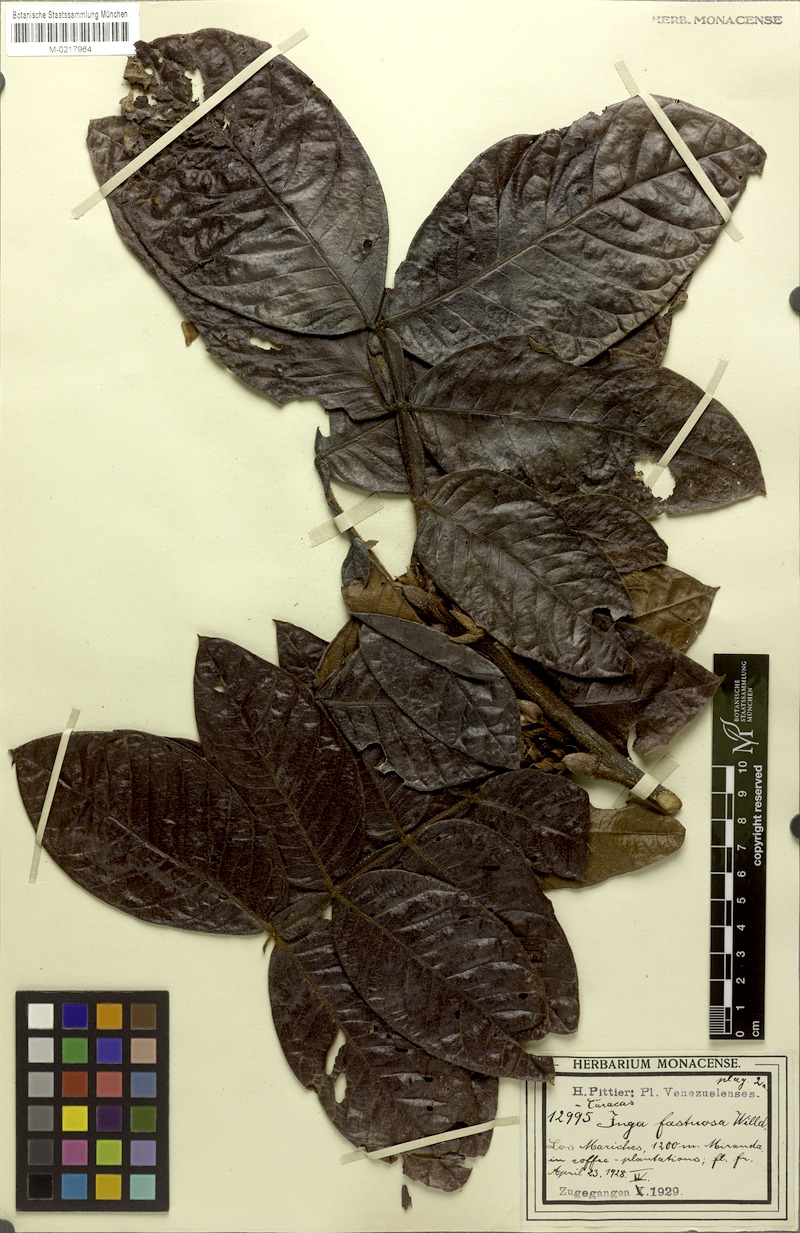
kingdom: Plantae
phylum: Tracheophyta
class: Magnoliopsida
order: Fabales
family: Fabaceae
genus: Inga
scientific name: Inga fastuosa
